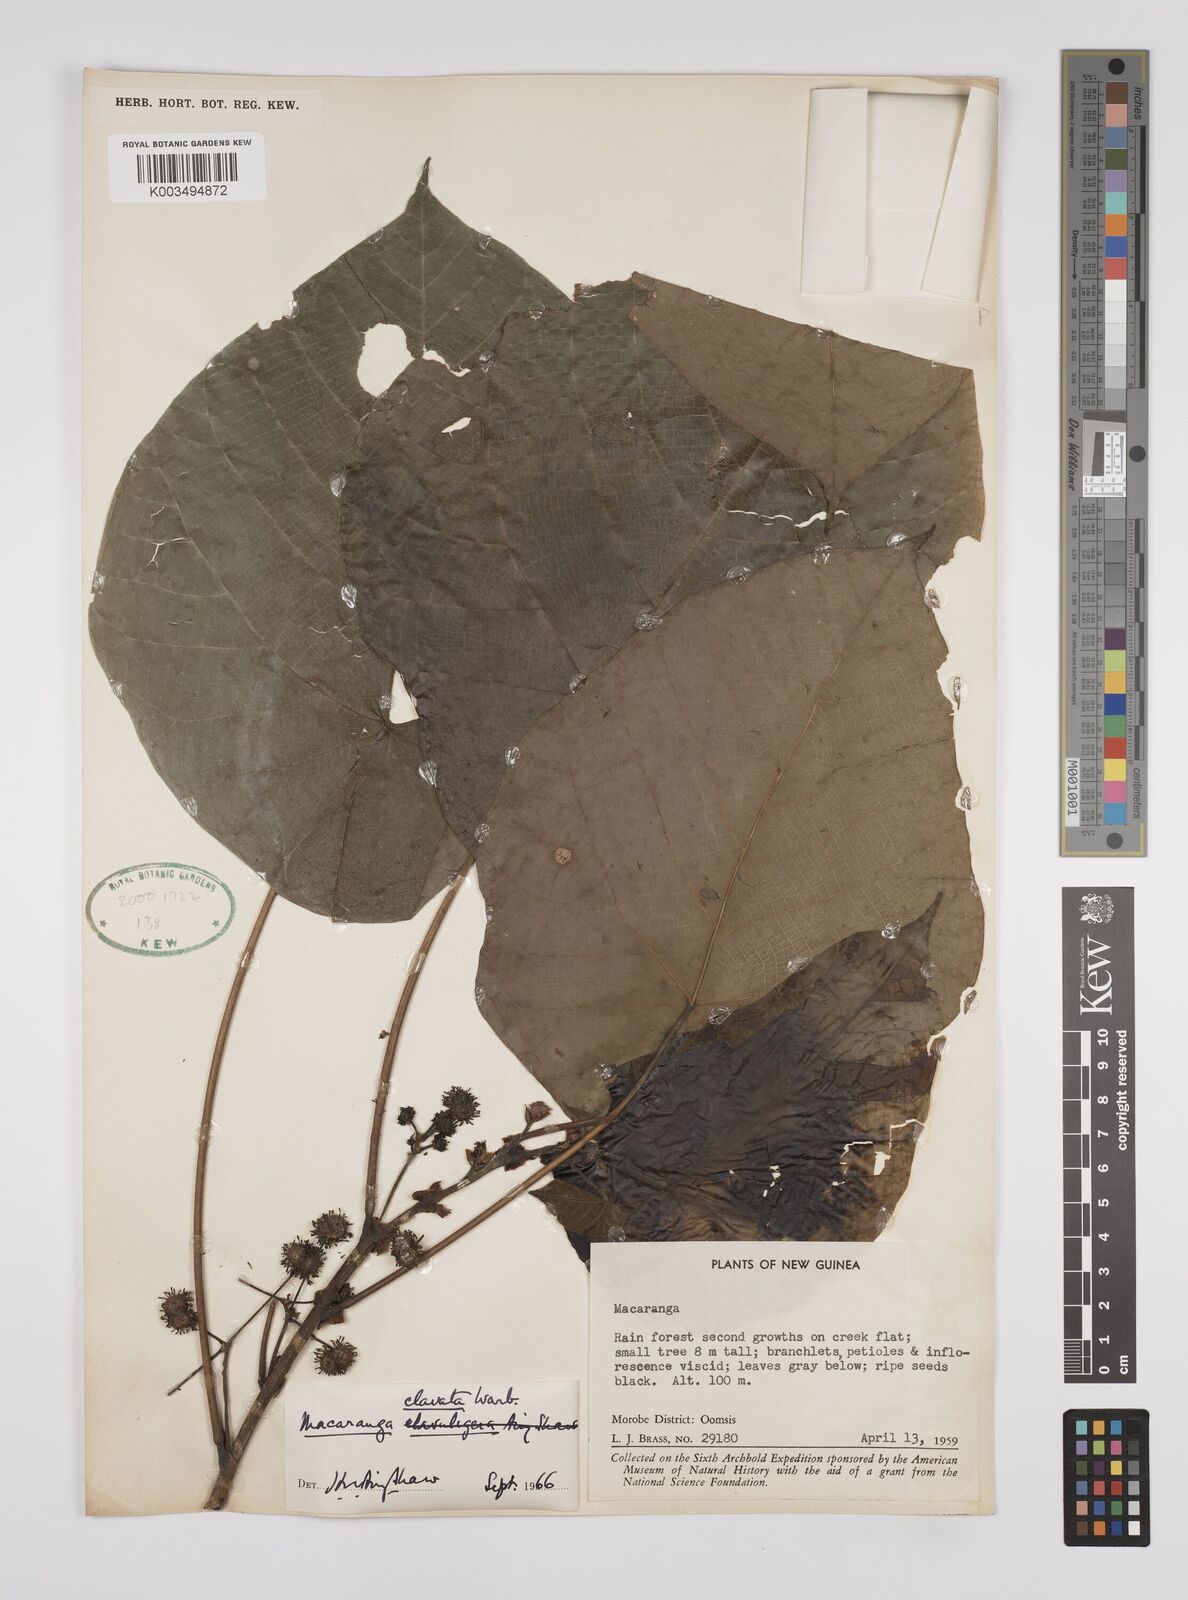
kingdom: Plantae
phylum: Tracheophyta
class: Magnoliopsida
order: Malpighiales
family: Euphorbiaceae
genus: Macaranga
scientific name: Macaranga clavata
